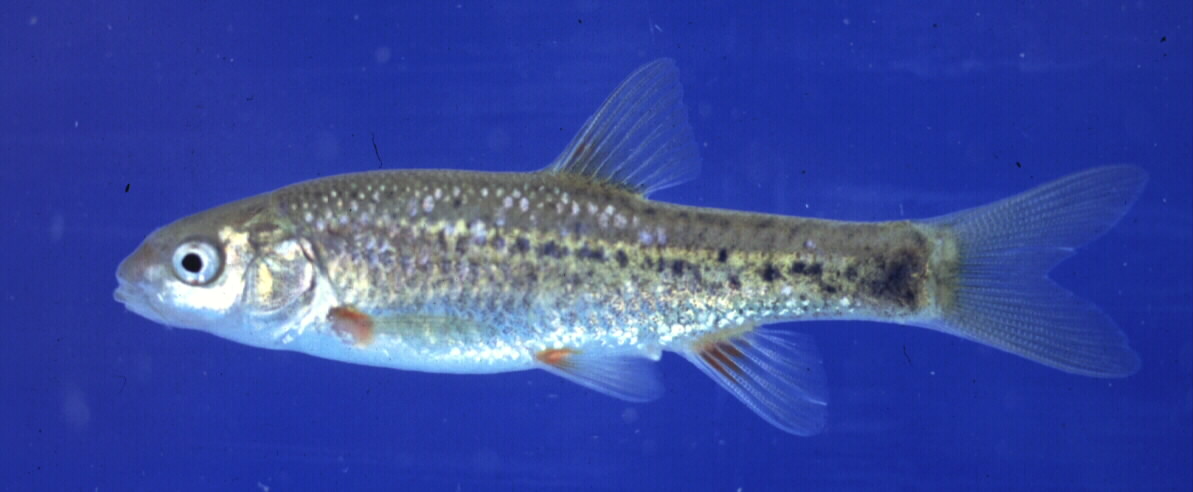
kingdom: Animalia
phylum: Chordata
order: Cypriniformes
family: Cyprinidae
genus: Pseudobarbus
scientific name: Pseudobarbus asper
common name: Smallscale redfin
